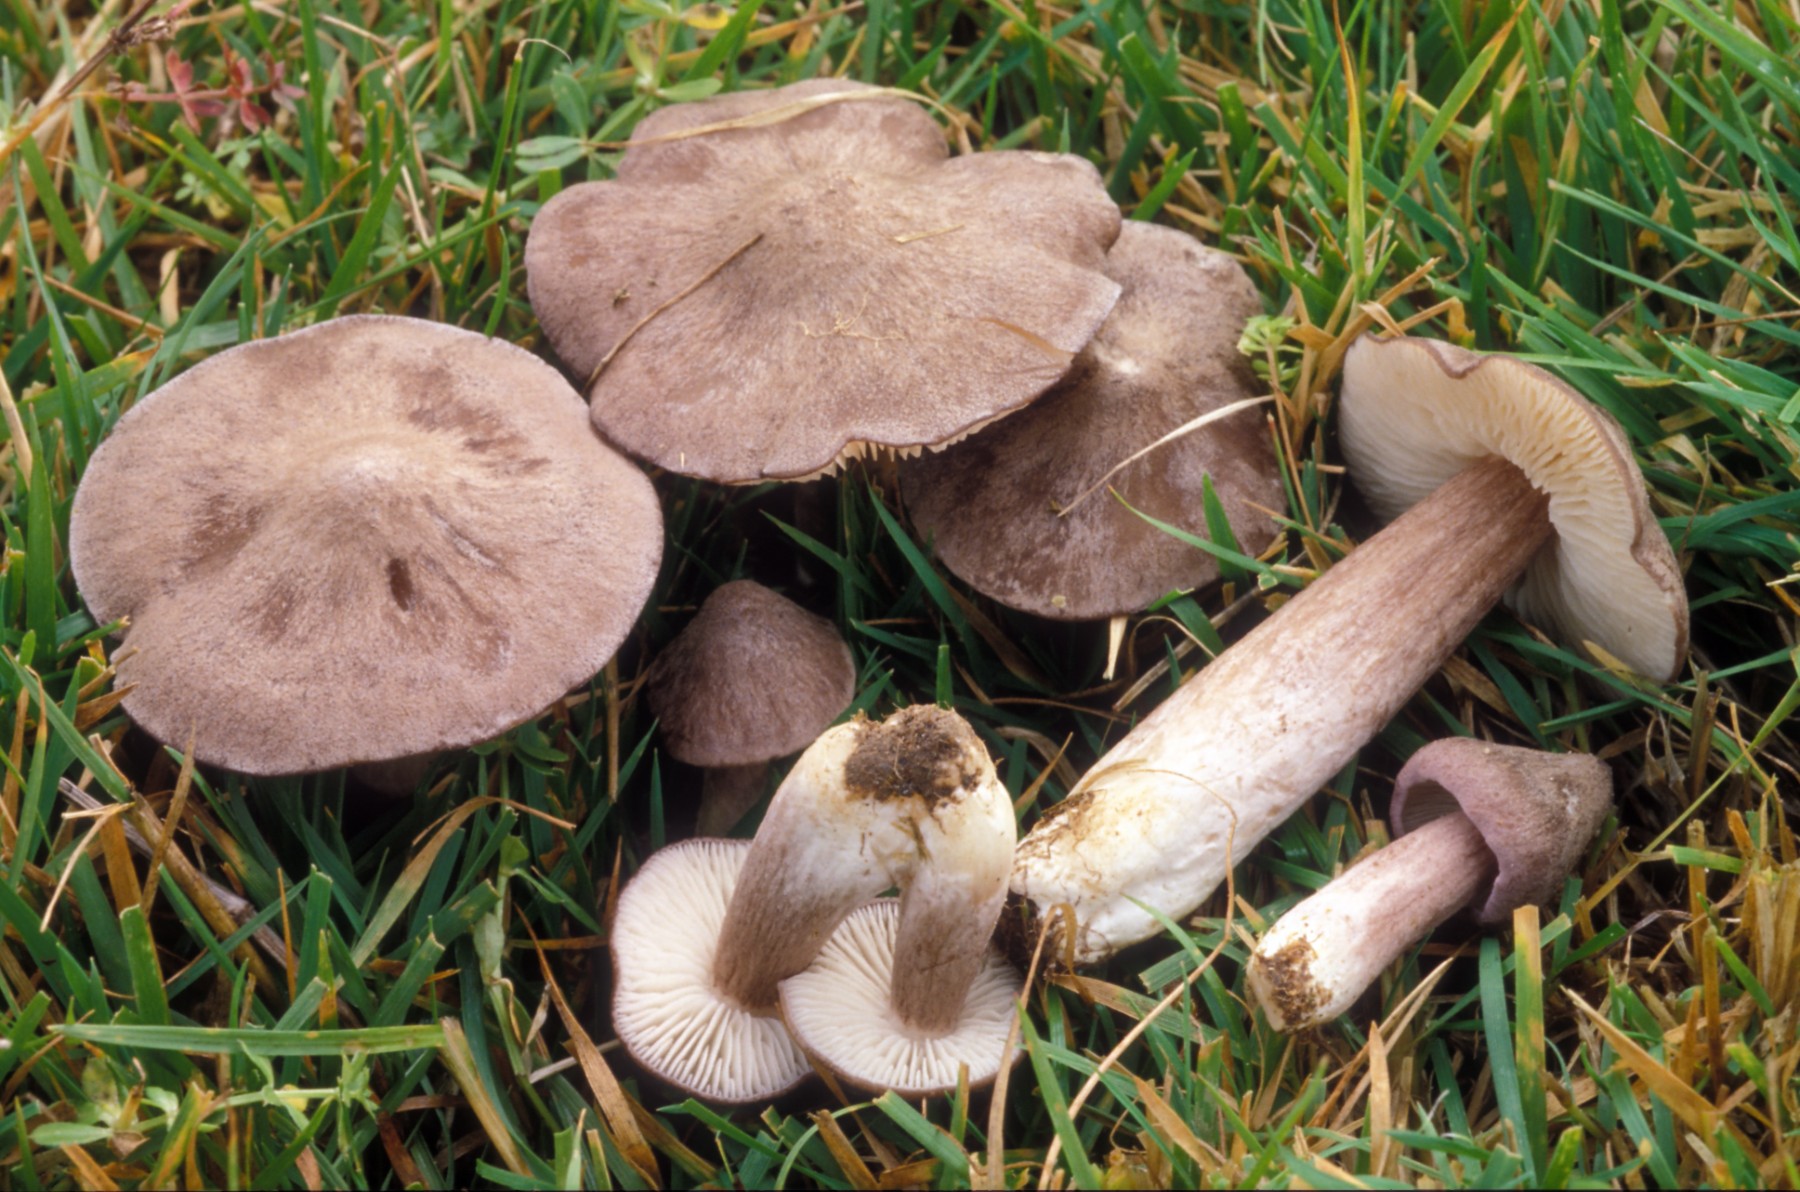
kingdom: Fungi
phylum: Basidiomycota
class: Agaricomycetes
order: Agaricales
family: Entolomataceae
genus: Entoloma
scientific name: Entoloma porphyrophaeum
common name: porfyrbrun rødblad
